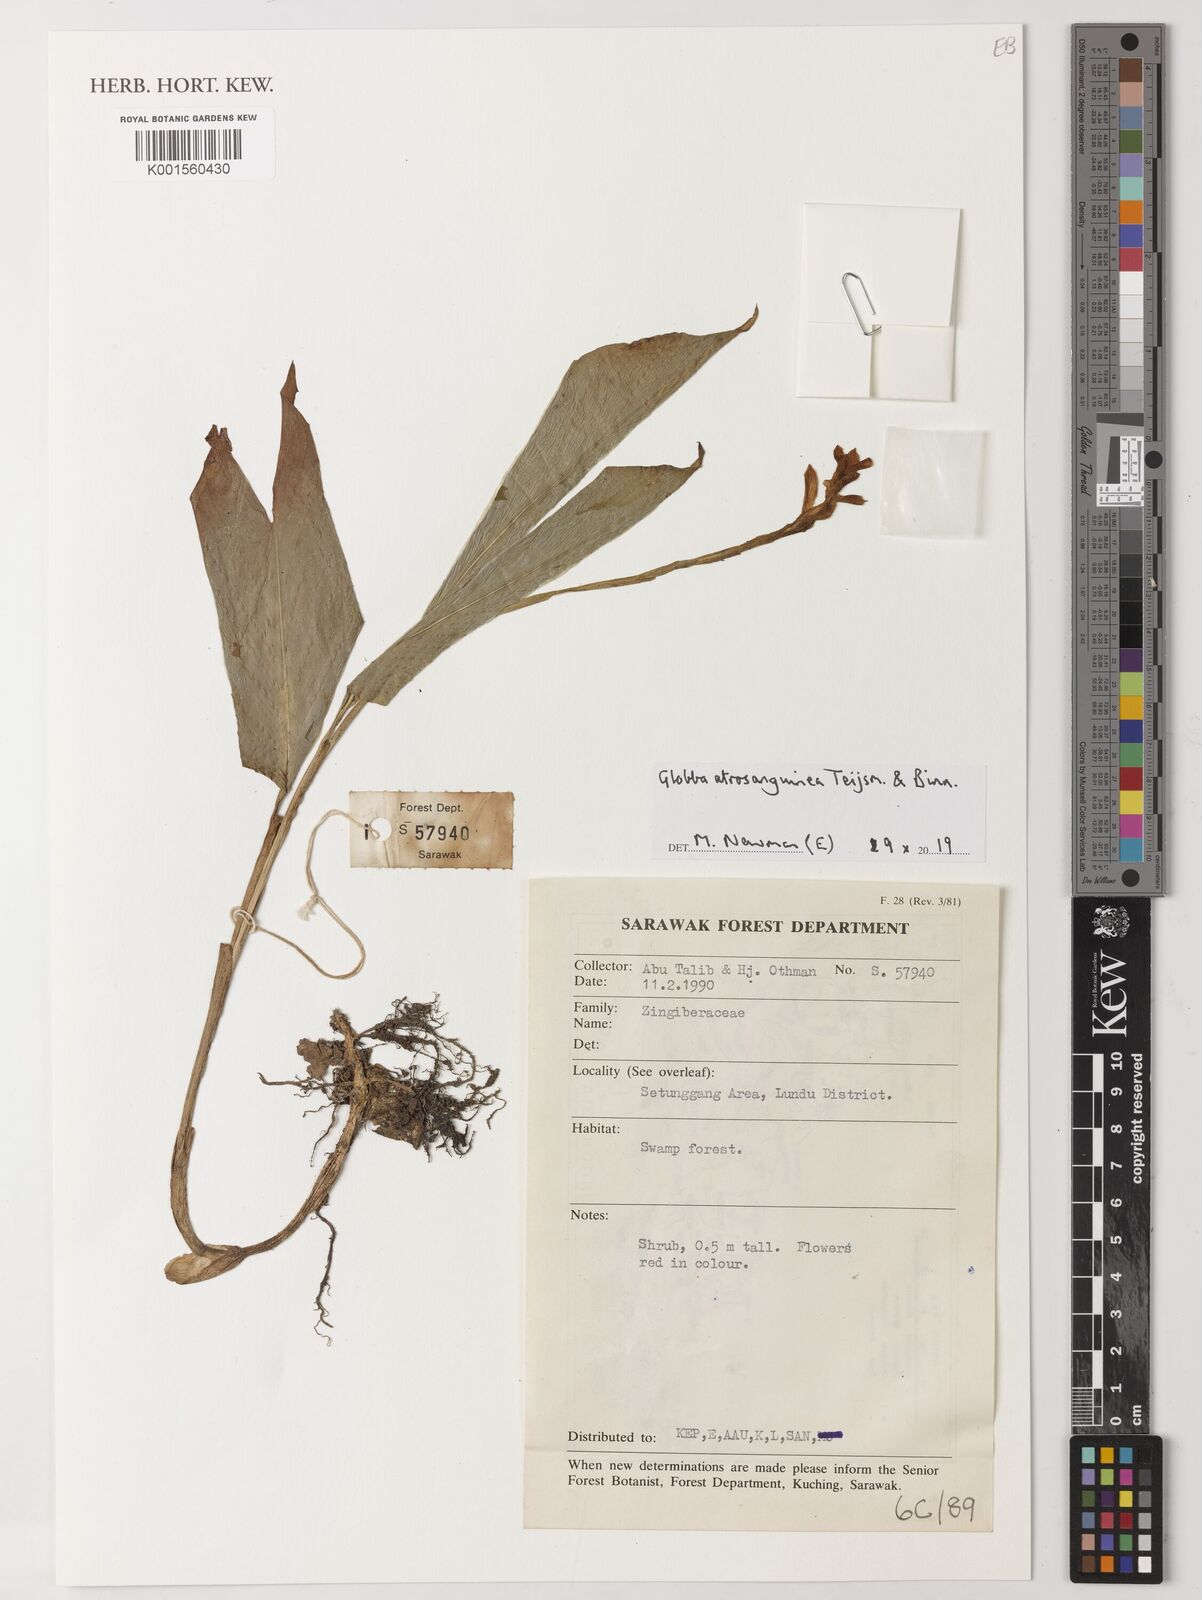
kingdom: Plantae
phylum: Tracheophyta
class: Liliopsida
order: Zingiberales
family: Zingiberaceae
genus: Globba
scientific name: Globba atrosanguinea
